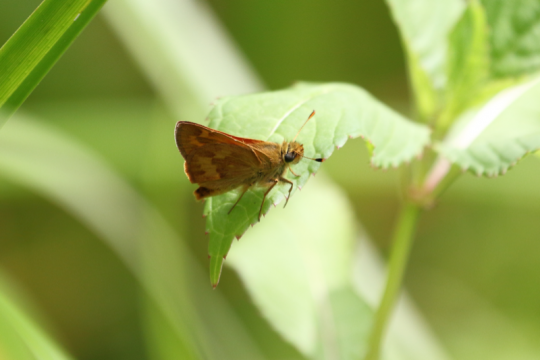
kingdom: Animalia
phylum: Arthropoda
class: Insecta
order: Lepidoptera
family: Hesperiidae
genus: Ochlodes
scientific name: Ochlodes sylvanoides
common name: Woodland Skipper
